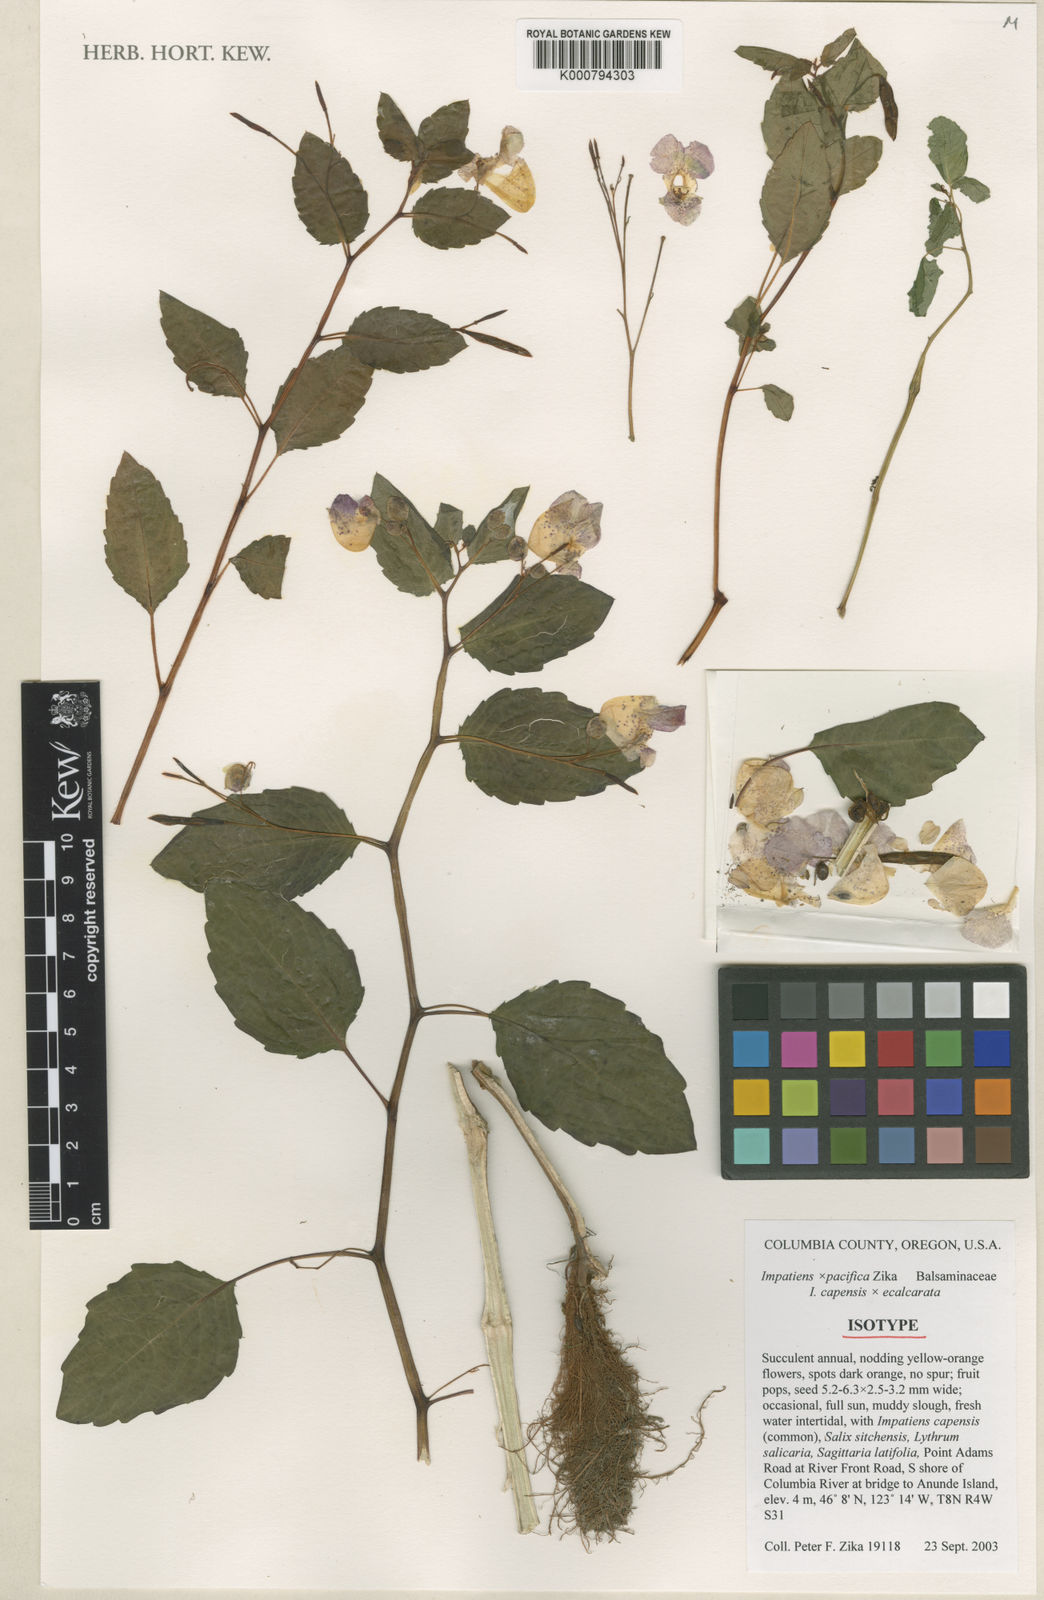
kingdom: Plantae
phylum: Tracheophyta
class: Magnoliopsida
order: Ericales
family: Balsaminaceae
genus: Impatiens
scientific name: Impatiens pacifica
